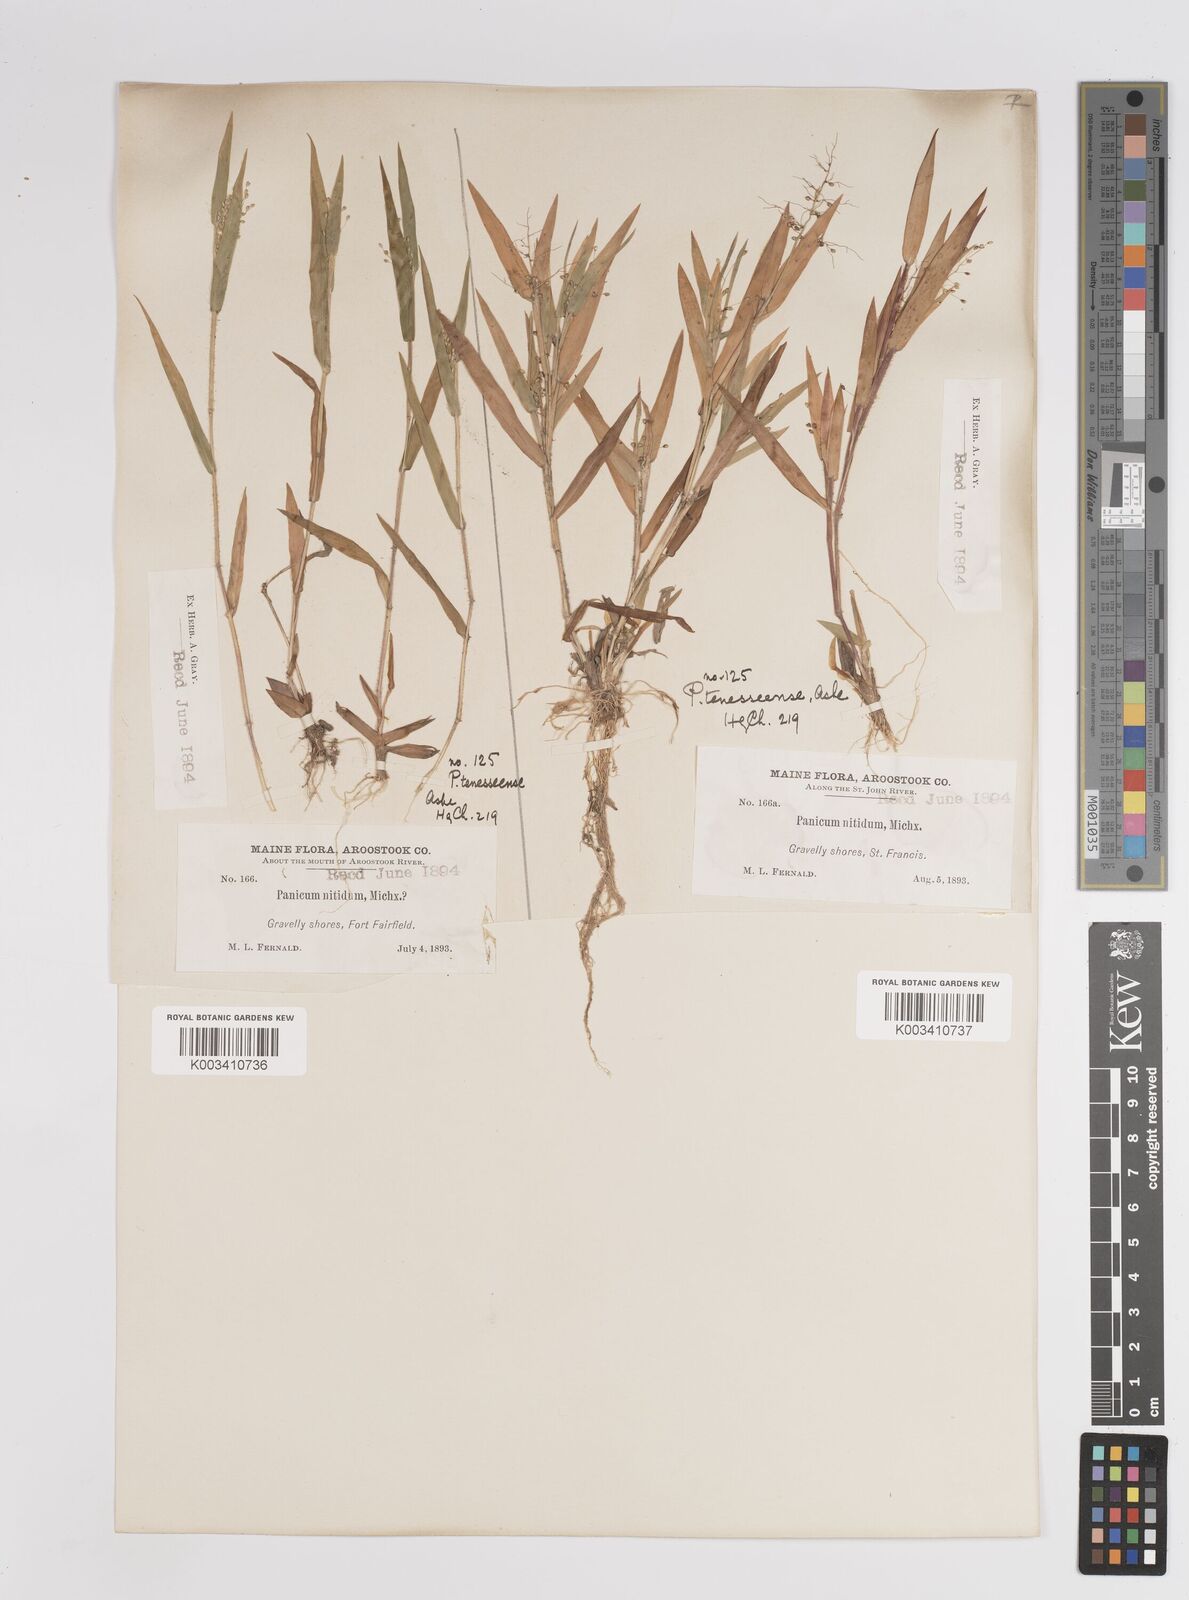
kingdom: Plantae
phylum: Tracheophyta
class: Liliopsida
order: Poales
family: Poaceae
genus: Dichanthelium
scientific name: Dichanthelium acuminatum
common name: Hairy panic grass
